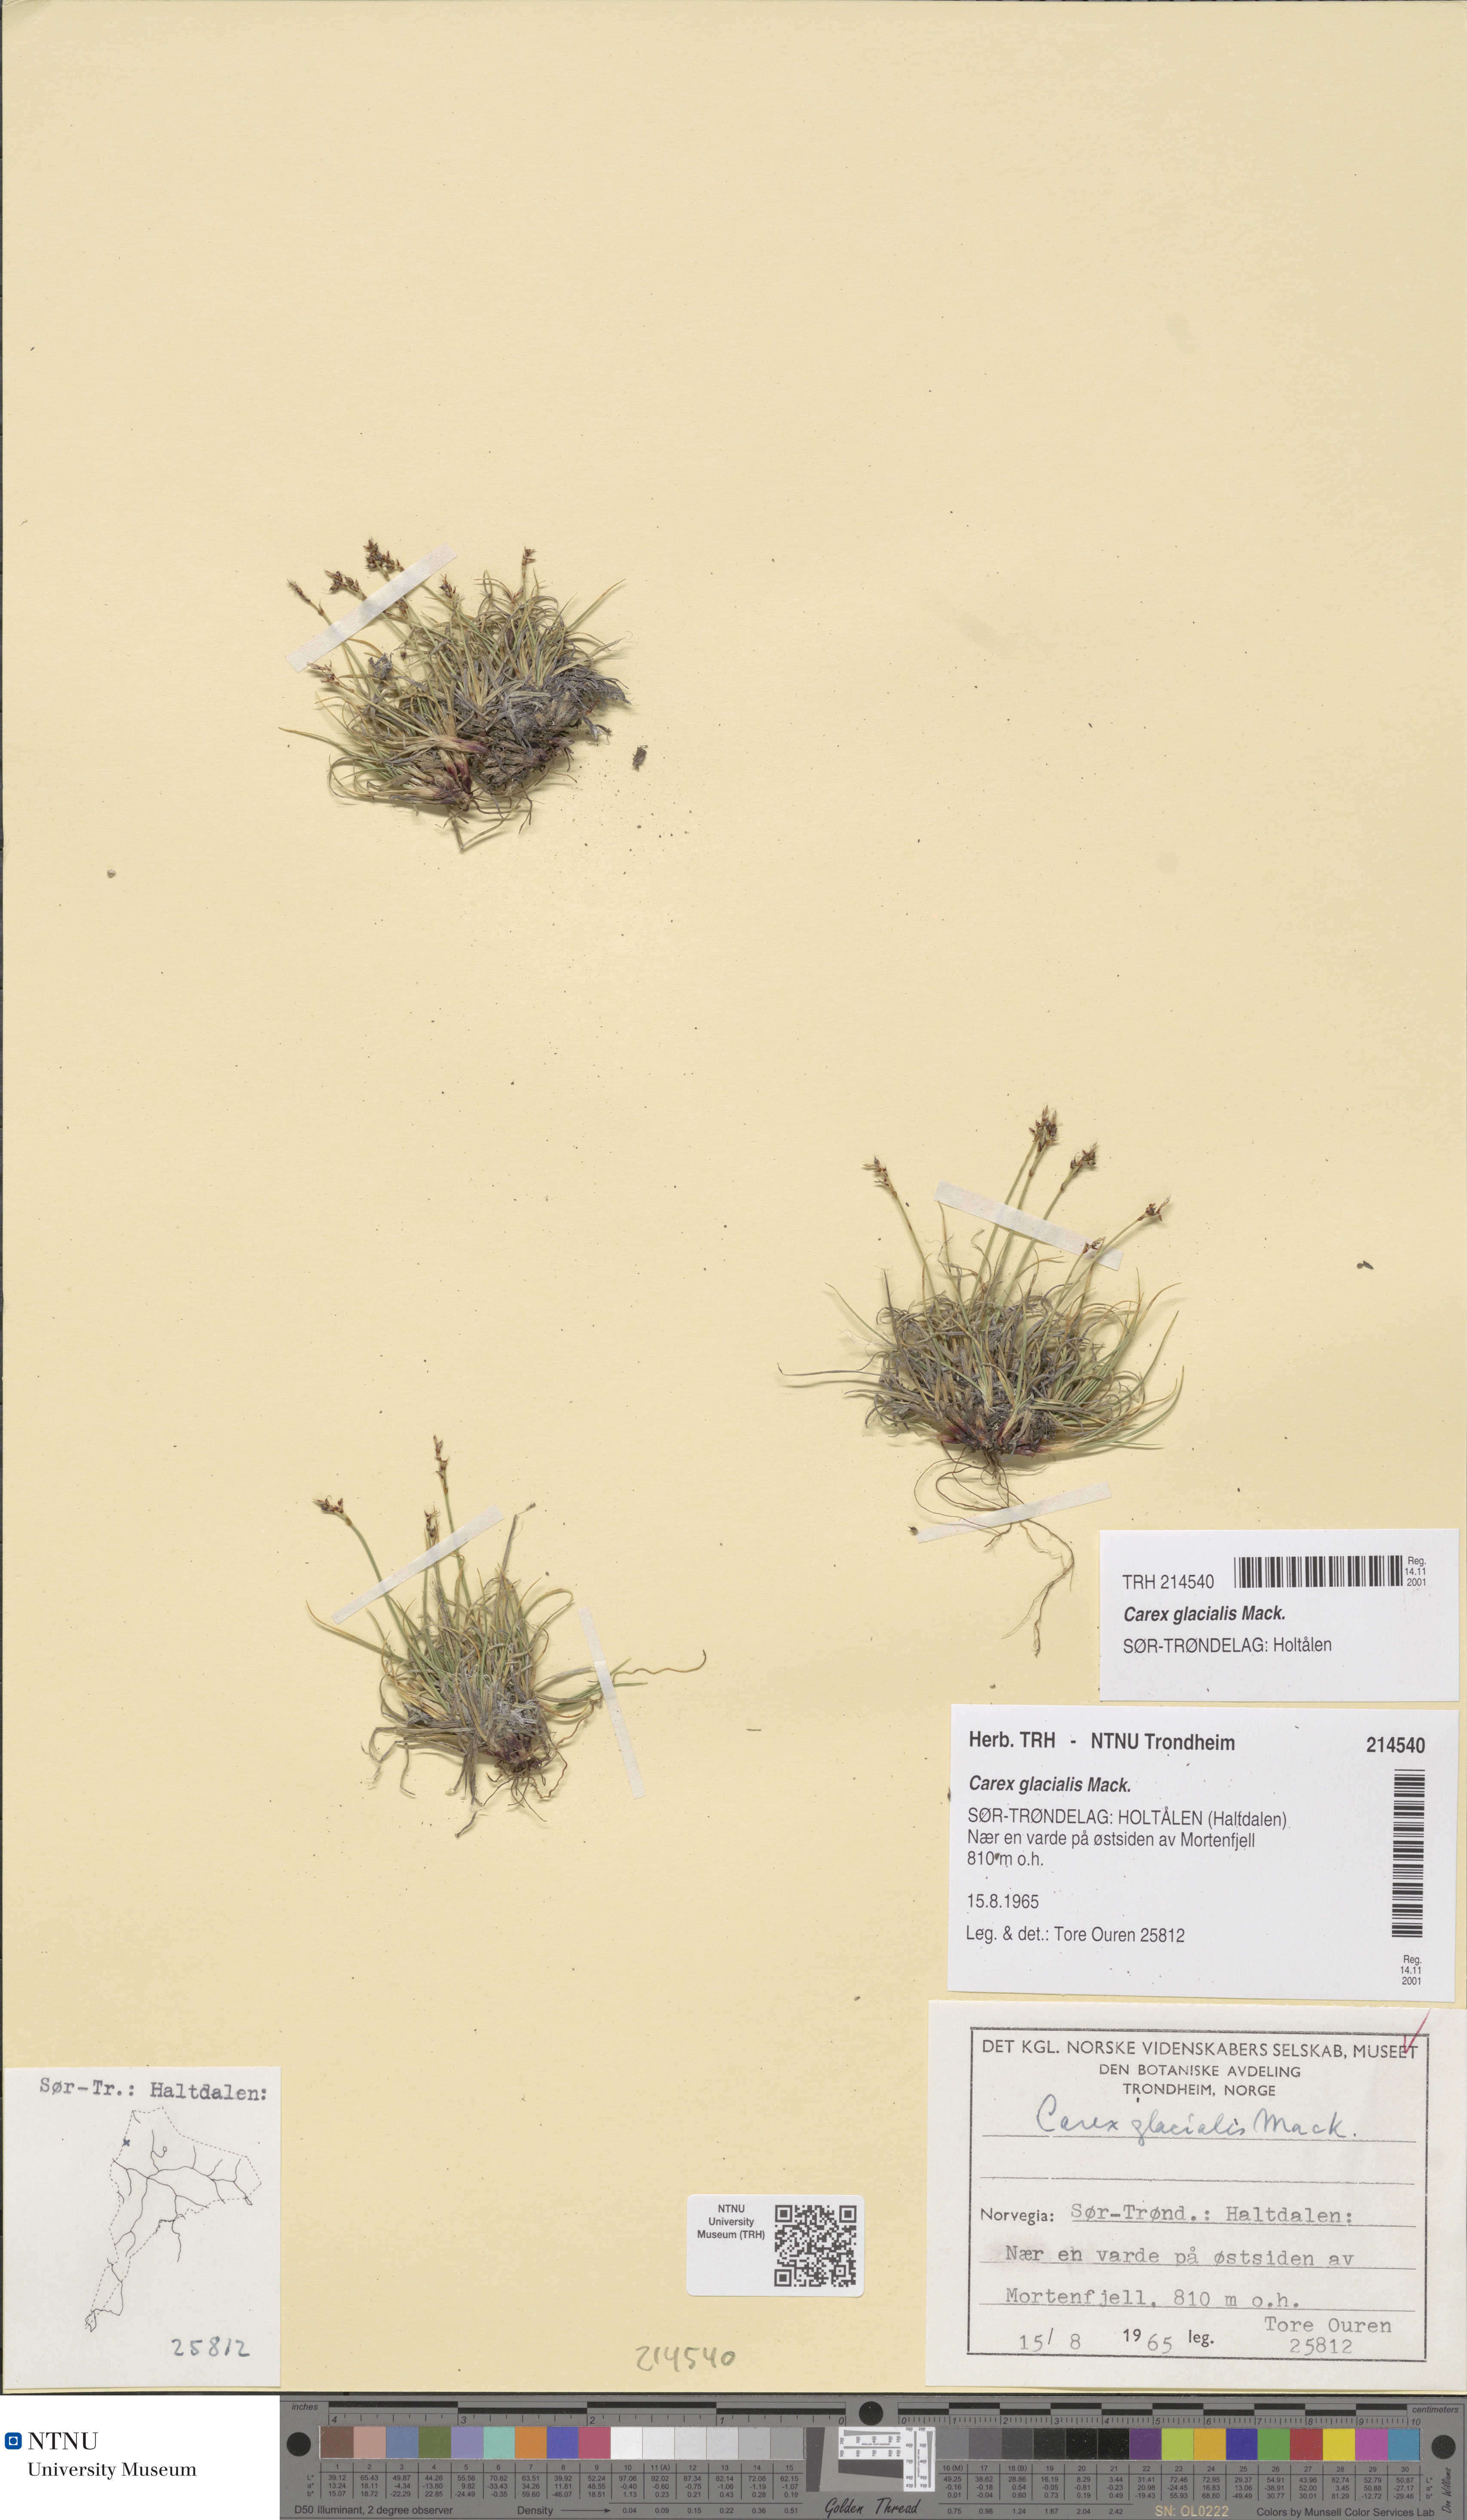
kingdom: Plantae
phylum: Tracheophyta
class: Liliopsida
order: Poales
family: Cyperaceae
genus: Carex
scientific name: Carex glacialis
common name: Newfoundland sedge
